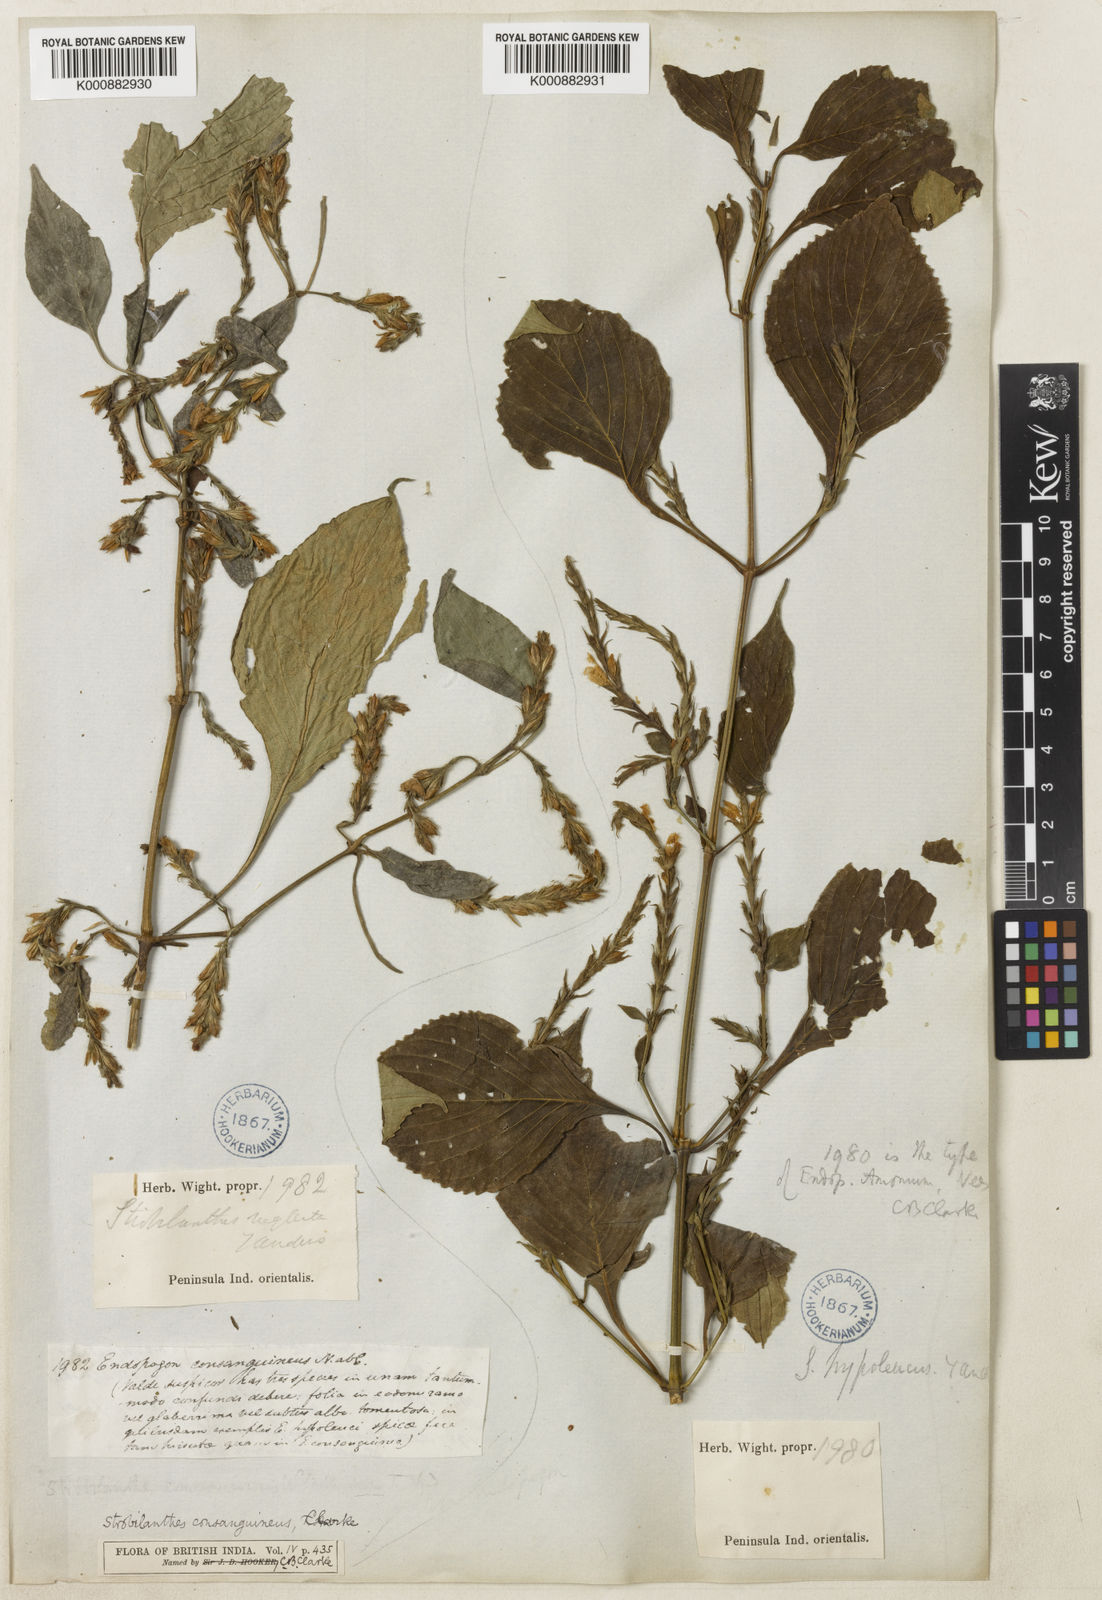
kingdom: Plantae
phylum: Tracheophyta
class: Magnoliopsida
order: Lamiales
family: Acanthaceae
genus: Strobilanthes
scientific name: Strobilanthes diandra
